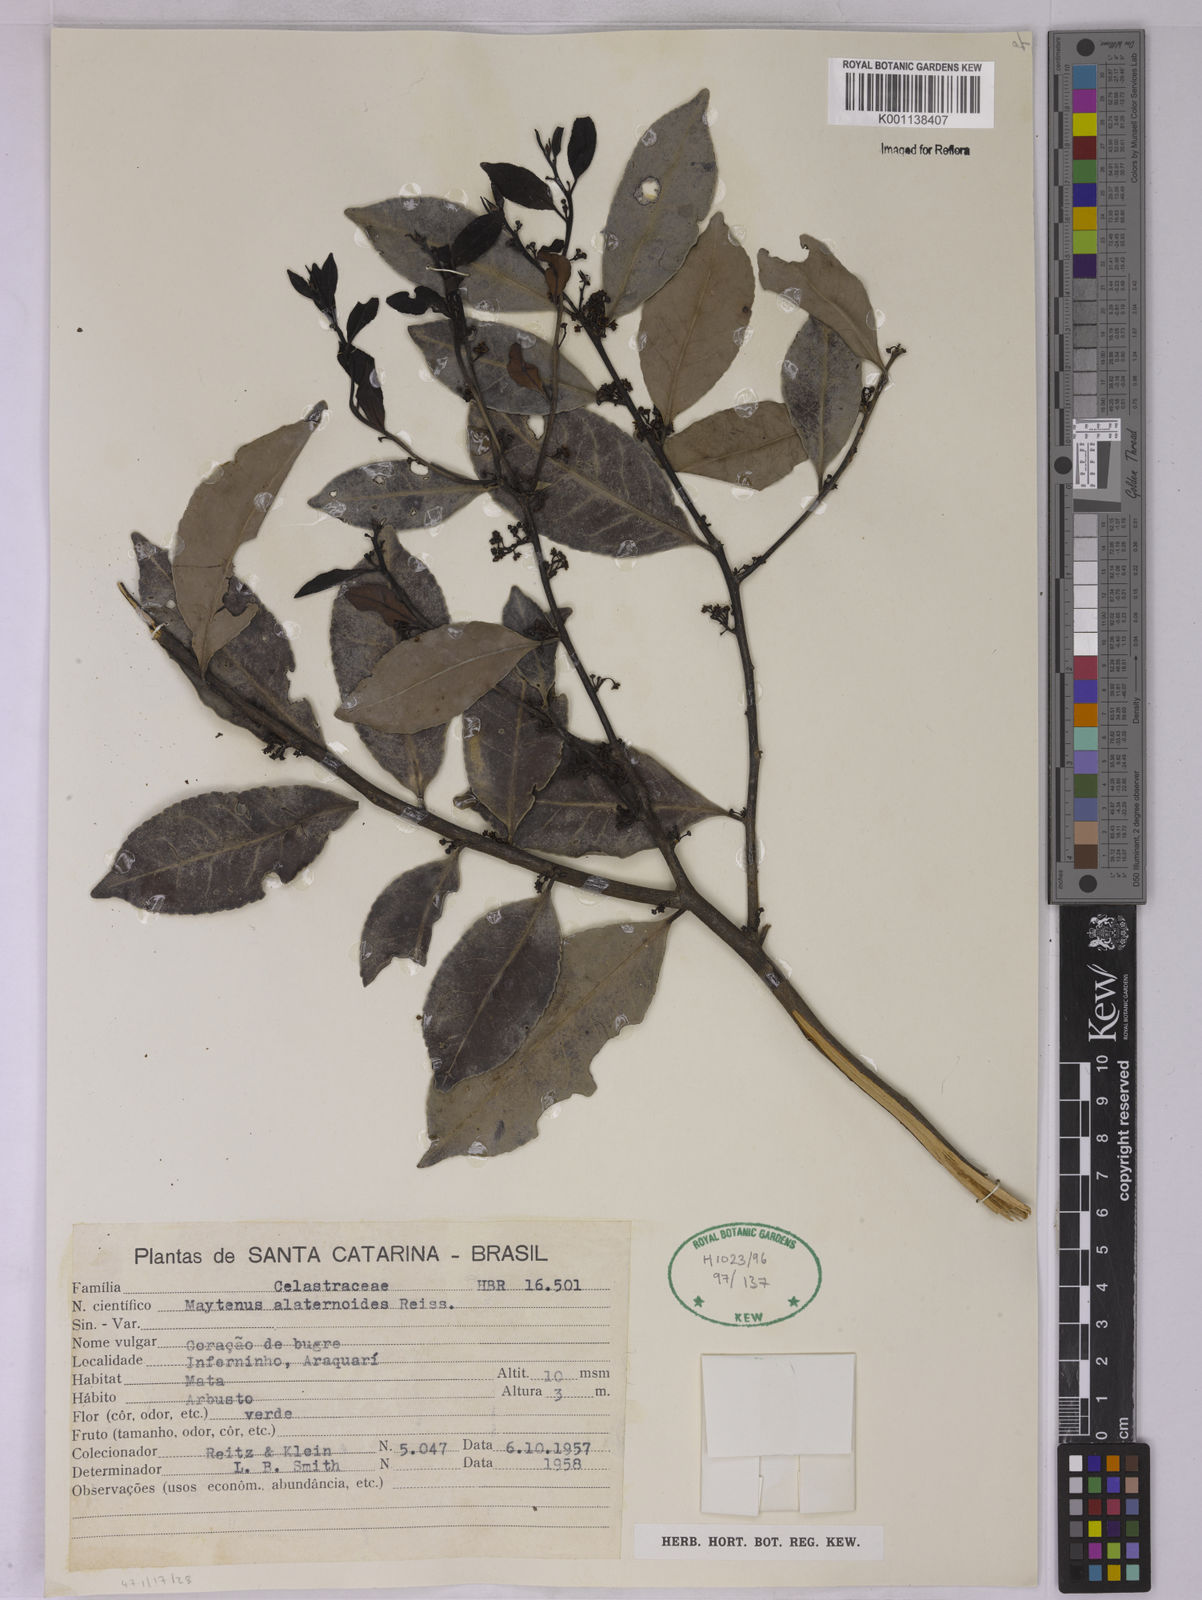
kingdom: Plantae
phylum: Tracheophyta
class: Magnoliopsida
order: Celastrales
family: Celastraceae
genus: Maytenus
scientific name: Maytenus alaternoides
